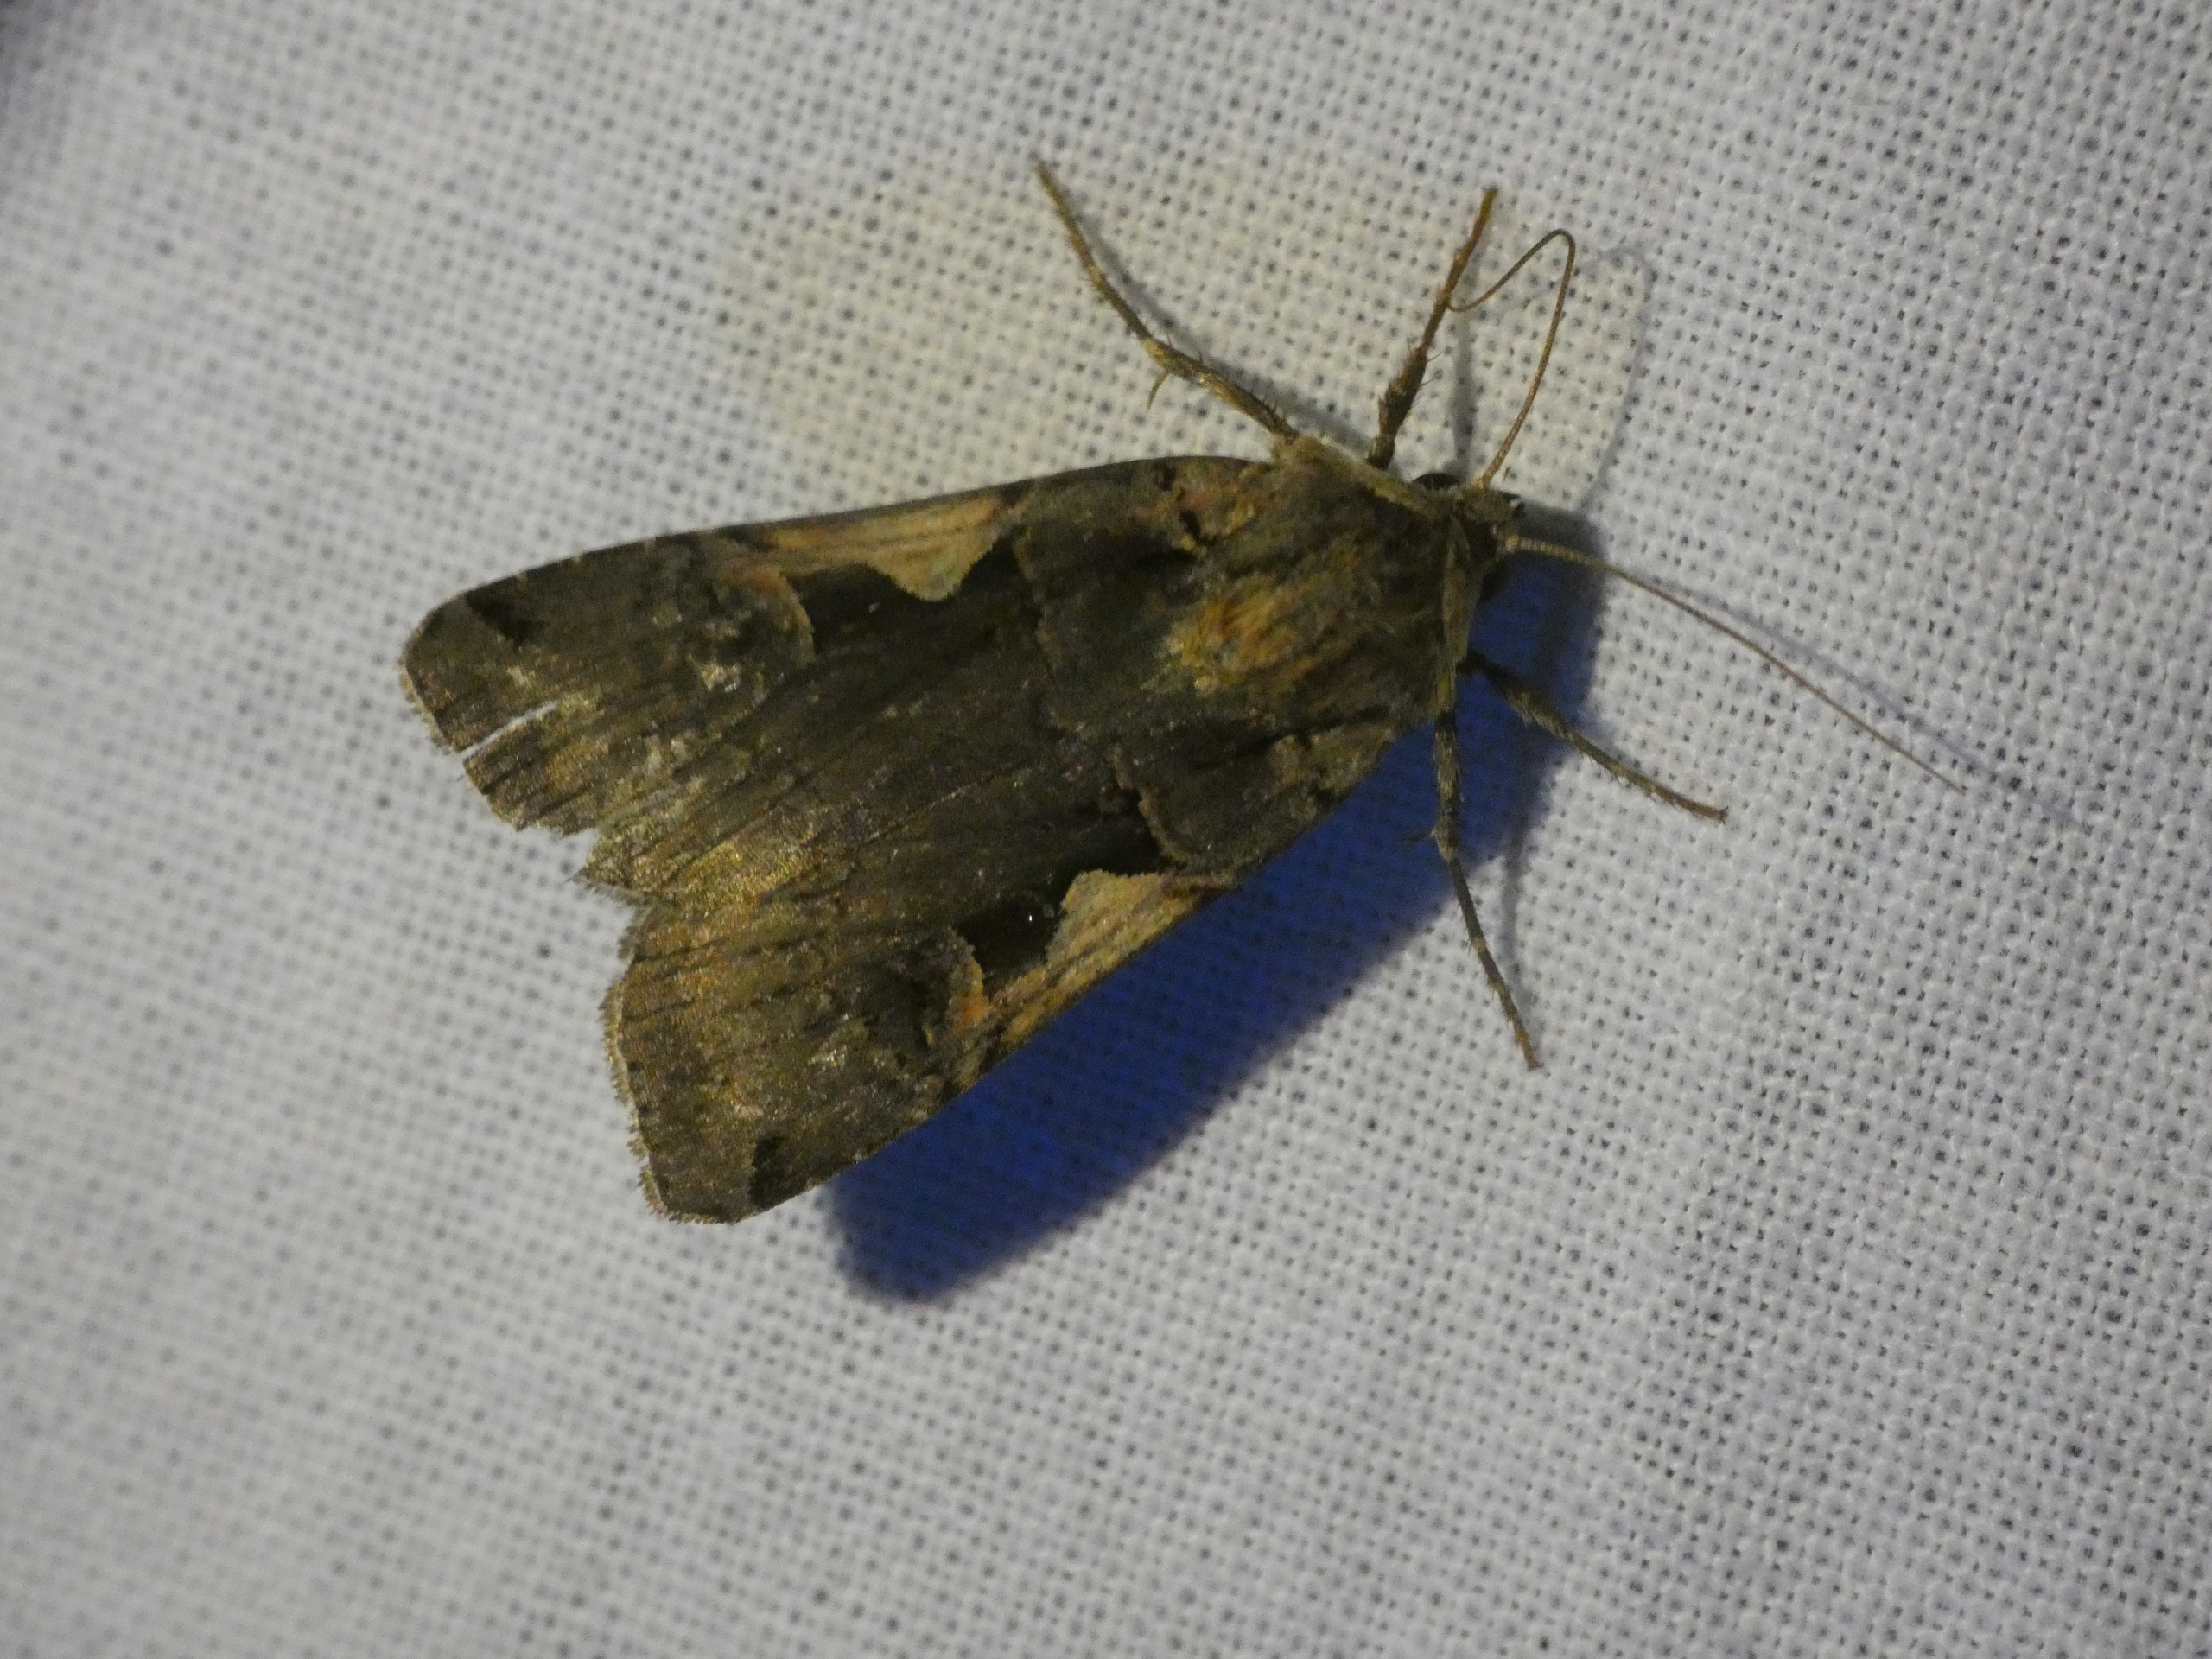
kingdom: Animalia
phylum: Arthropoda
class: Insecta
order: Lepidoptera
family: Noctuidae
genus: Xestia
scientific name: Xestia c-nigrum
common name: Det sorte c
